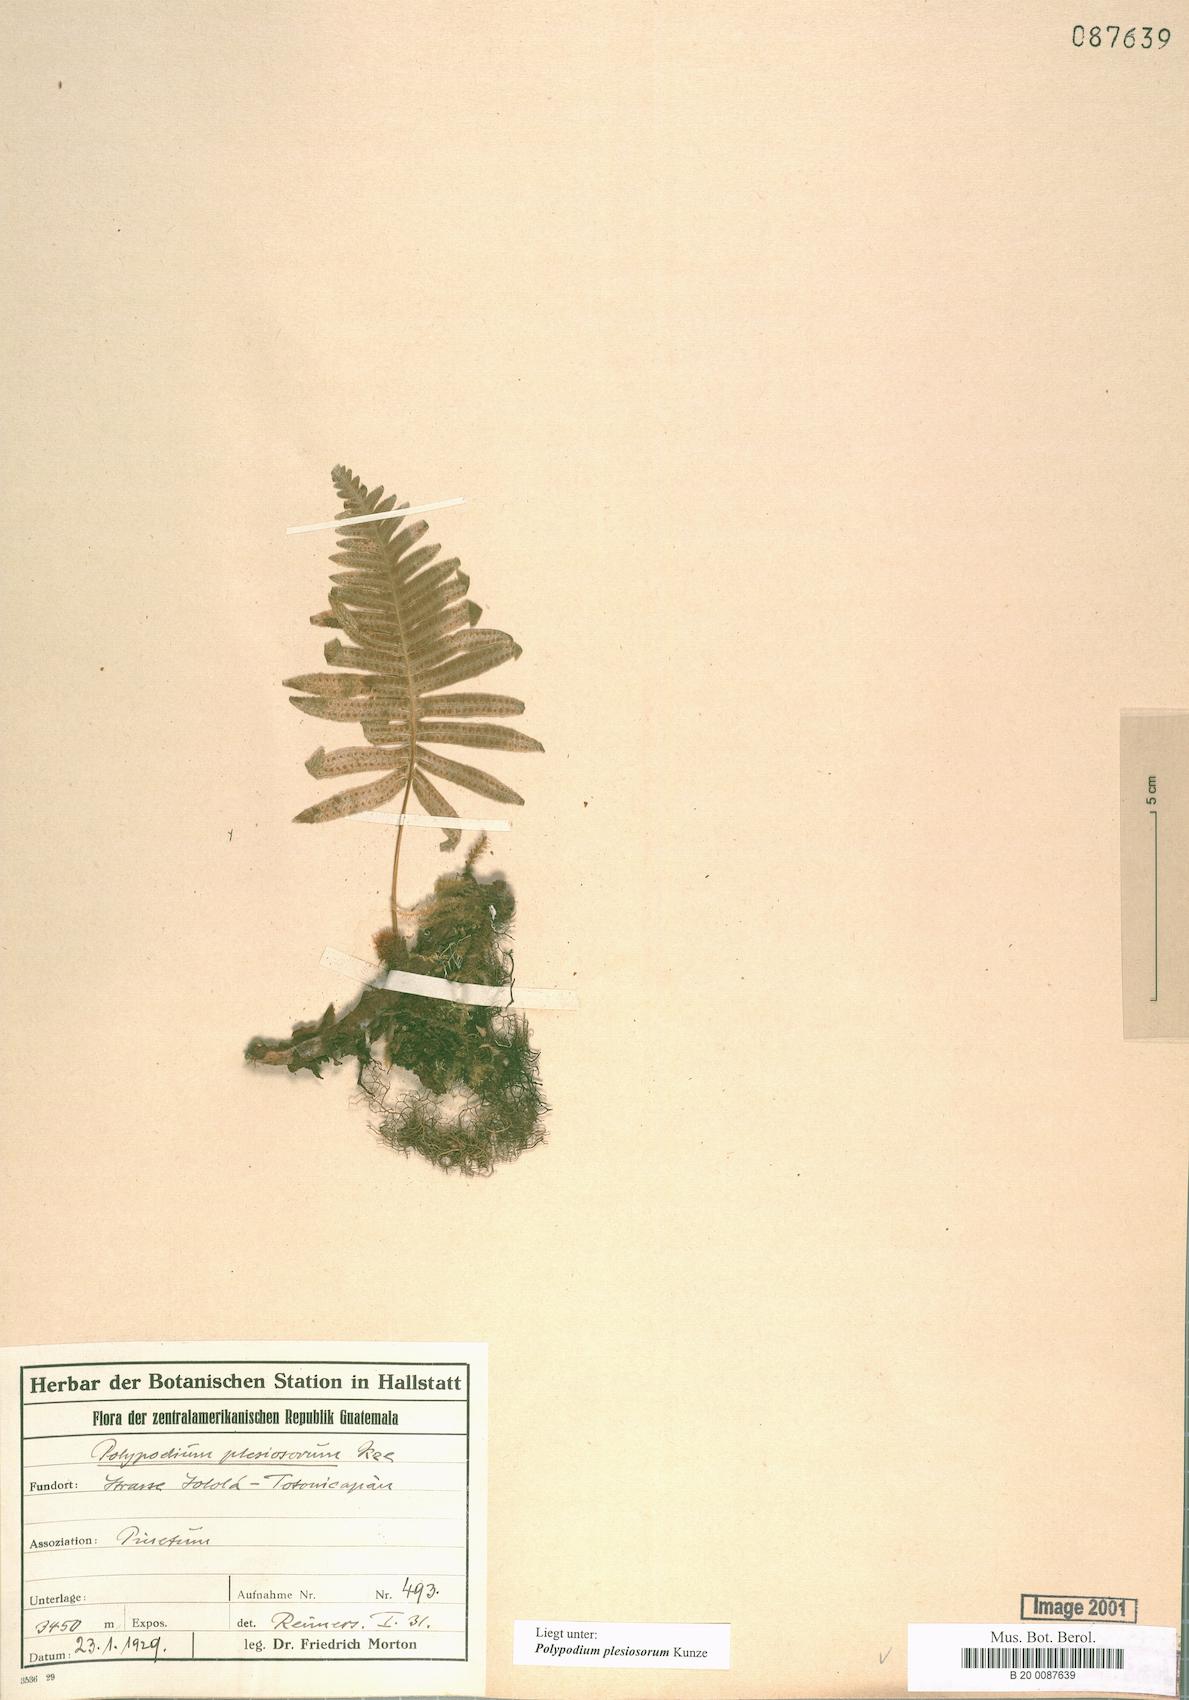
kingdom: Plantae
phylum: Tracheophyta
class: Polypodiopsida
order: Polypodiales
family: Polypodiaceae
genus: Polypodium
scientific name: Polypodium plesiosorum
